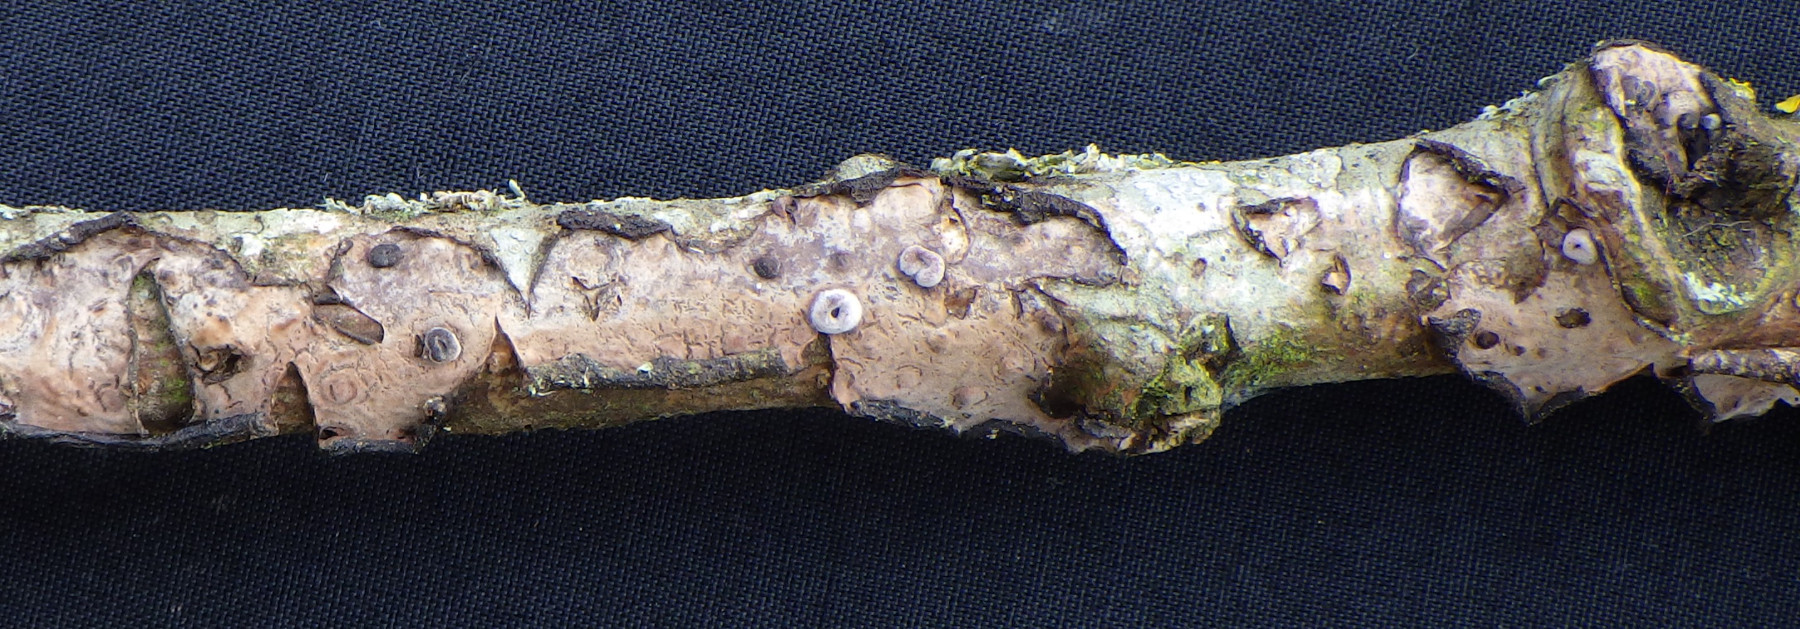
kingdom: Fungi
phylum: Basidiomycota
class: Agaricomycetes
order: Russulales
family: Peniophoraceae
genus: Peniophora
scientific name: Peniophora quercina
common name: ege-voksskind
